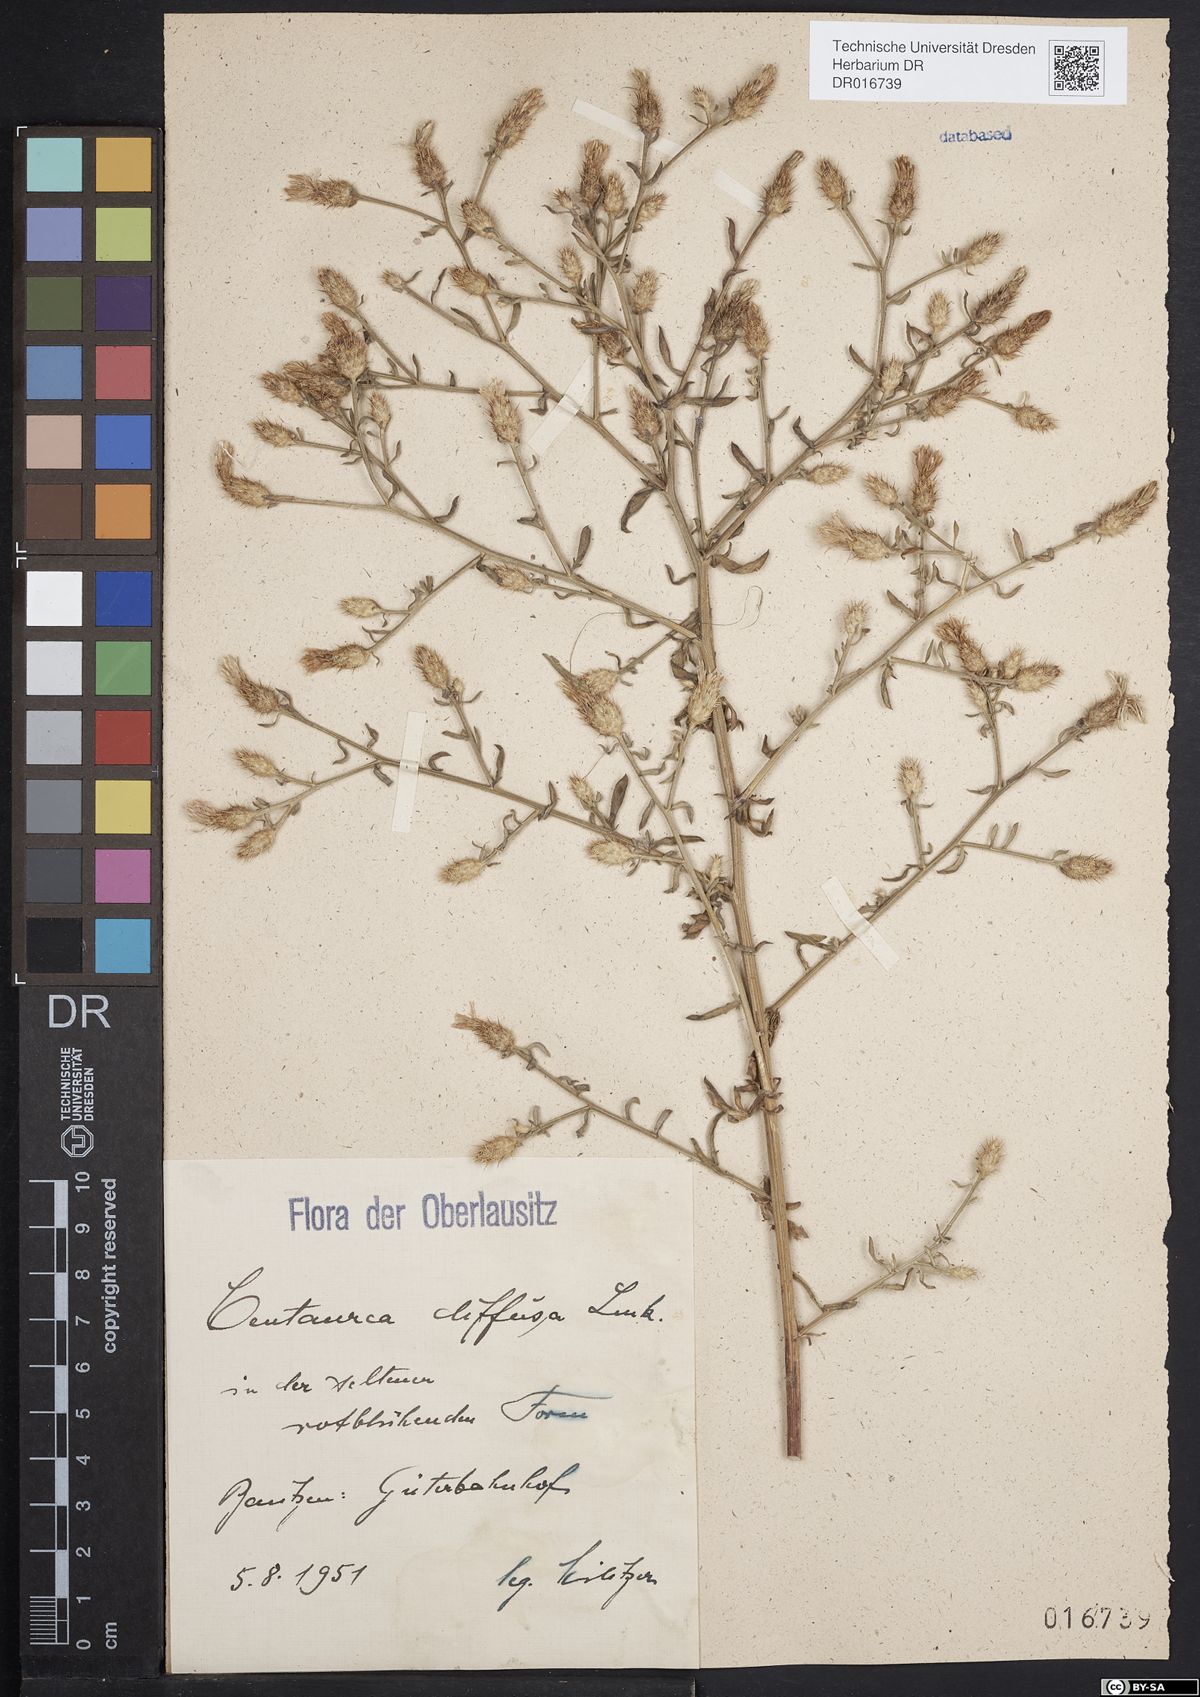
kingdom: Plantae
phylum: Tracheophyta
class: Magnoliopsida
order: Asterales
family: Asteraceae
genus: Centaurea
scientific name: Centaurea diffusa
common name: Diffuse knapweed
